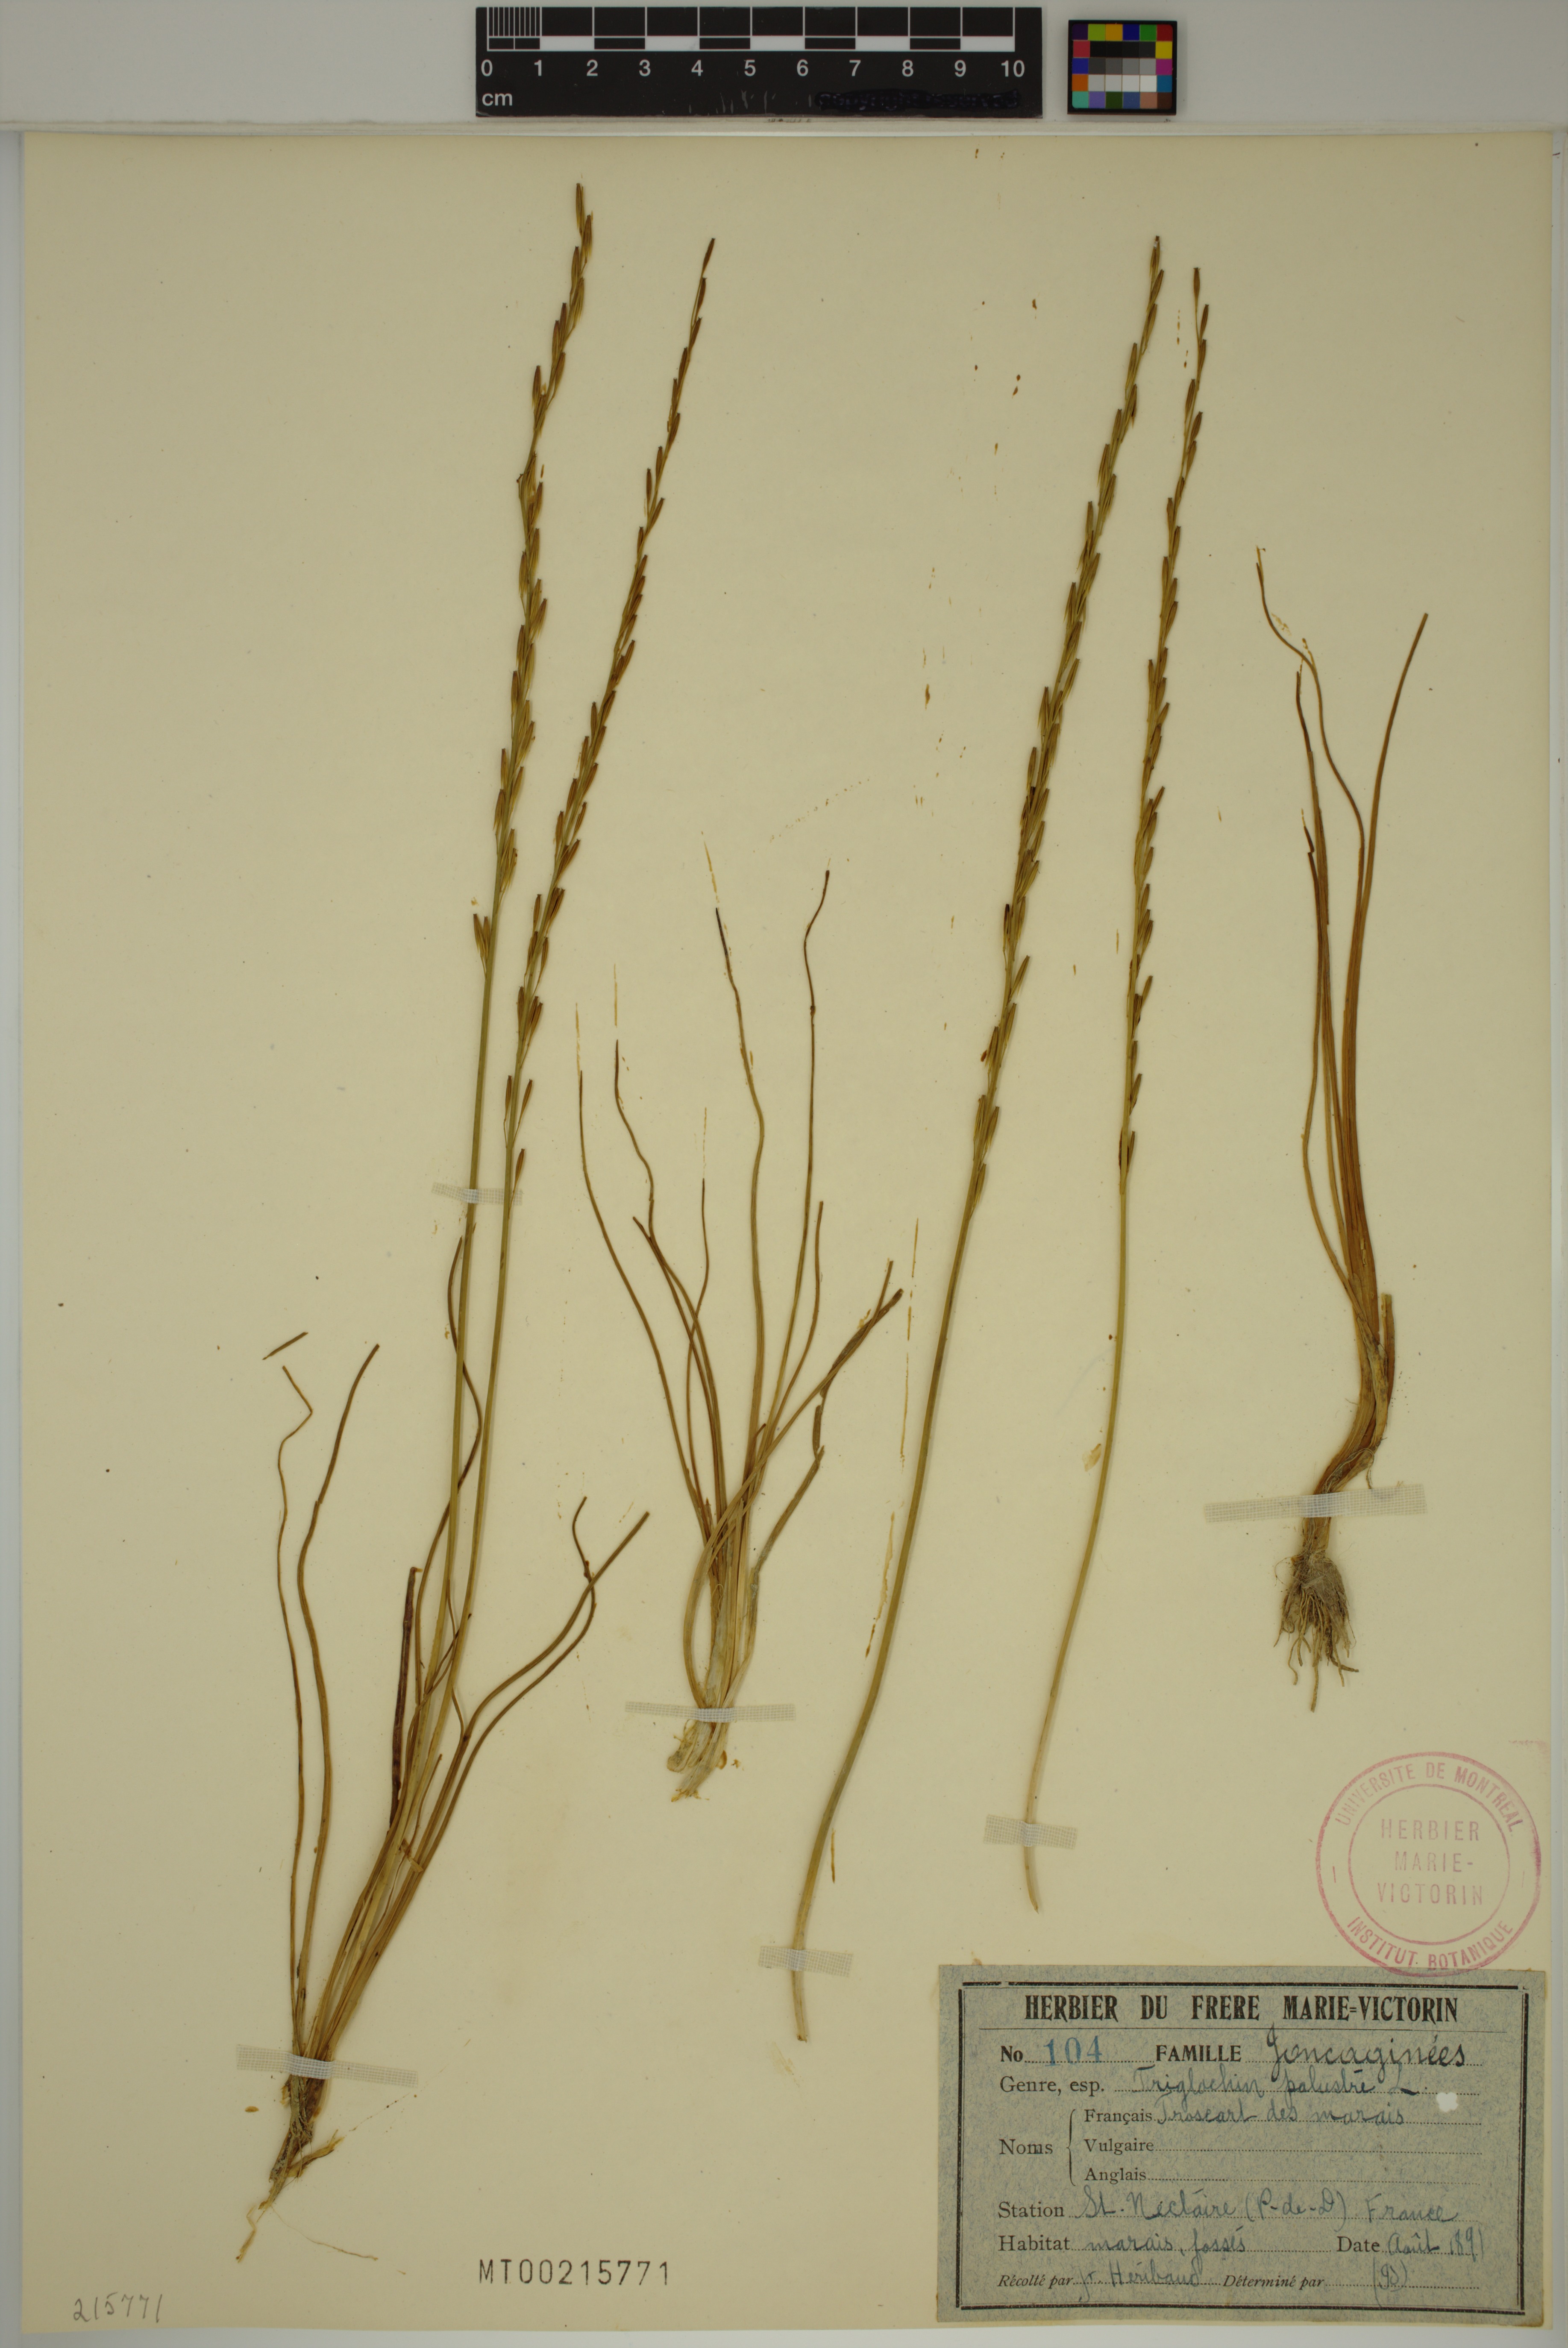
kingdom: Plantae
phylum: Tracheophyta
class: Liliopsida
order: Alismatales
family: Juncaginaceae
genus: Triglochin
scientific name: Triglochin palustris
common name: Marsh arrowgrass
